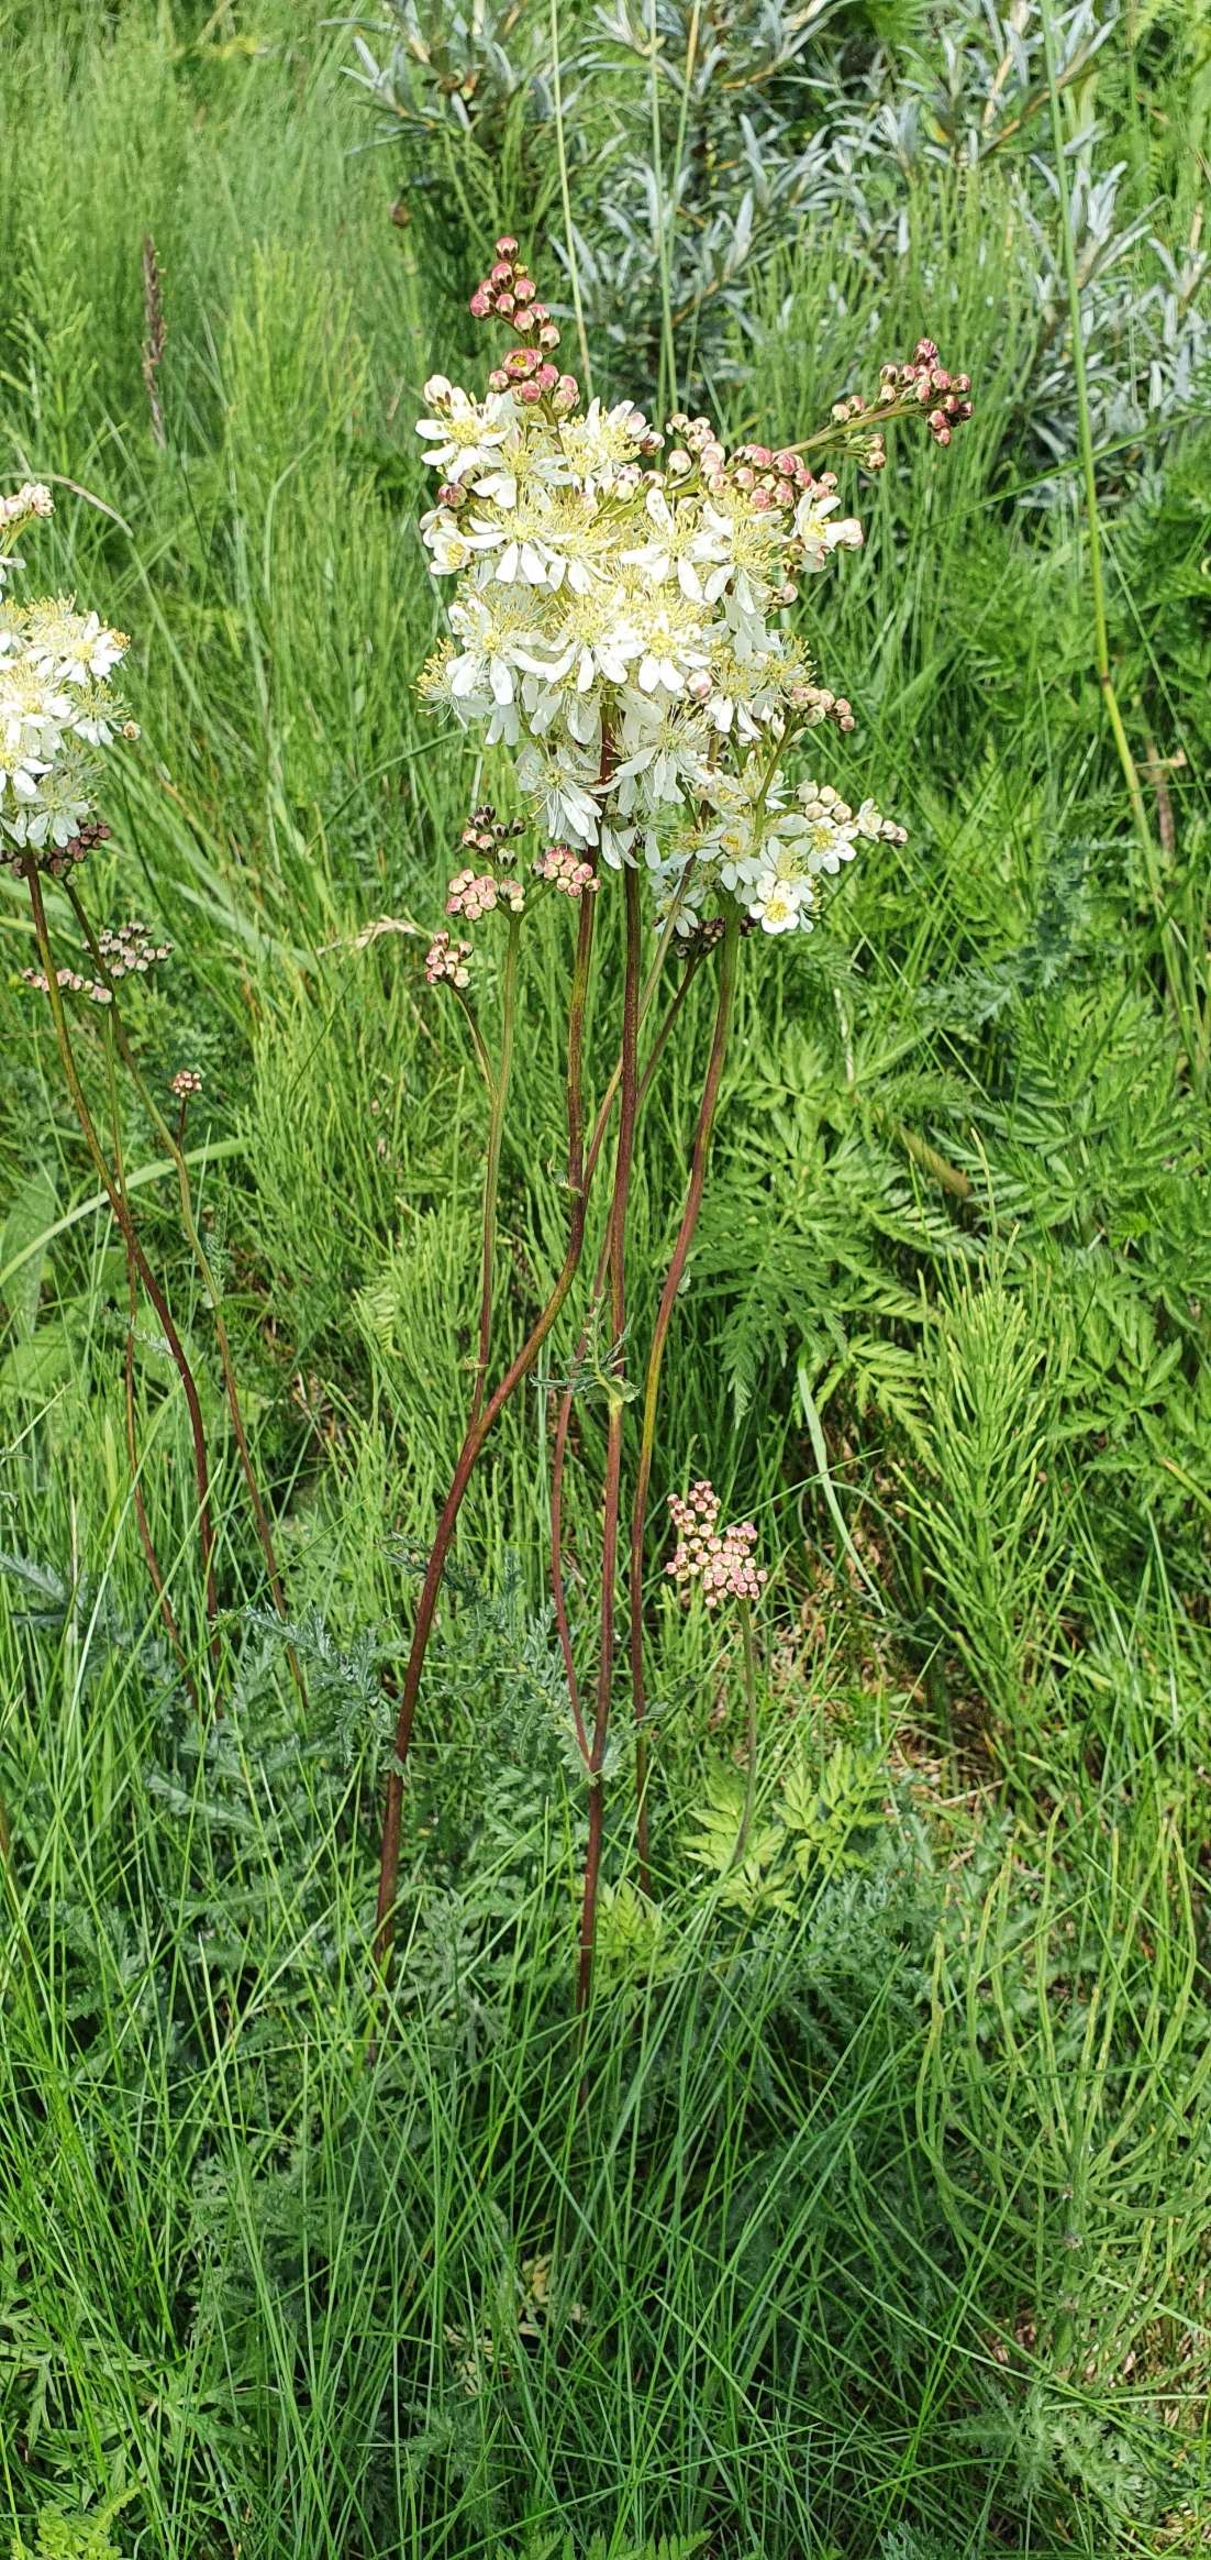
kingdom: Plantae
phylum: Tracheophyta
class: Magnoliopsida
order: Rosales
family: Rosaceae
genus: Filipendula
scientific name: Filipendula vulgaris
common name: Knoldet mjødurt
